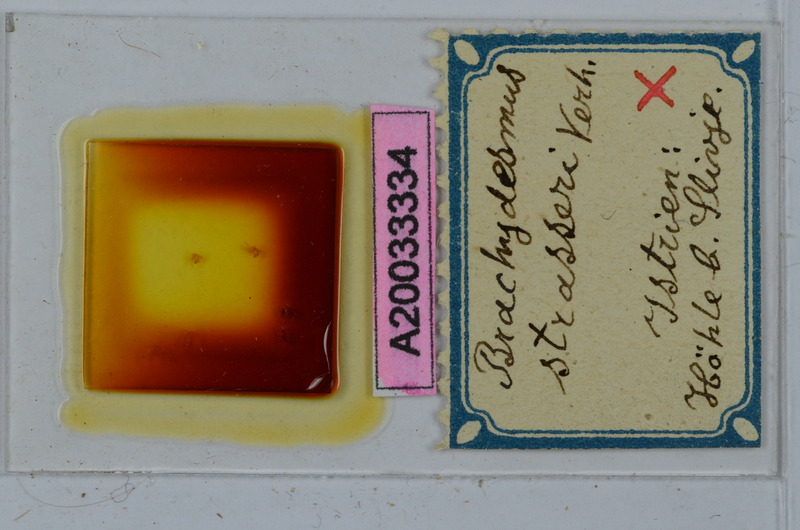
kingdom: Animalia
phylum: Arthropoda
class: Diplopoda
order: Polydesmida
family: Polydesmidae
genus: Schizobrachydesmus
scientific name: Schizobrachydesmus strasseri
